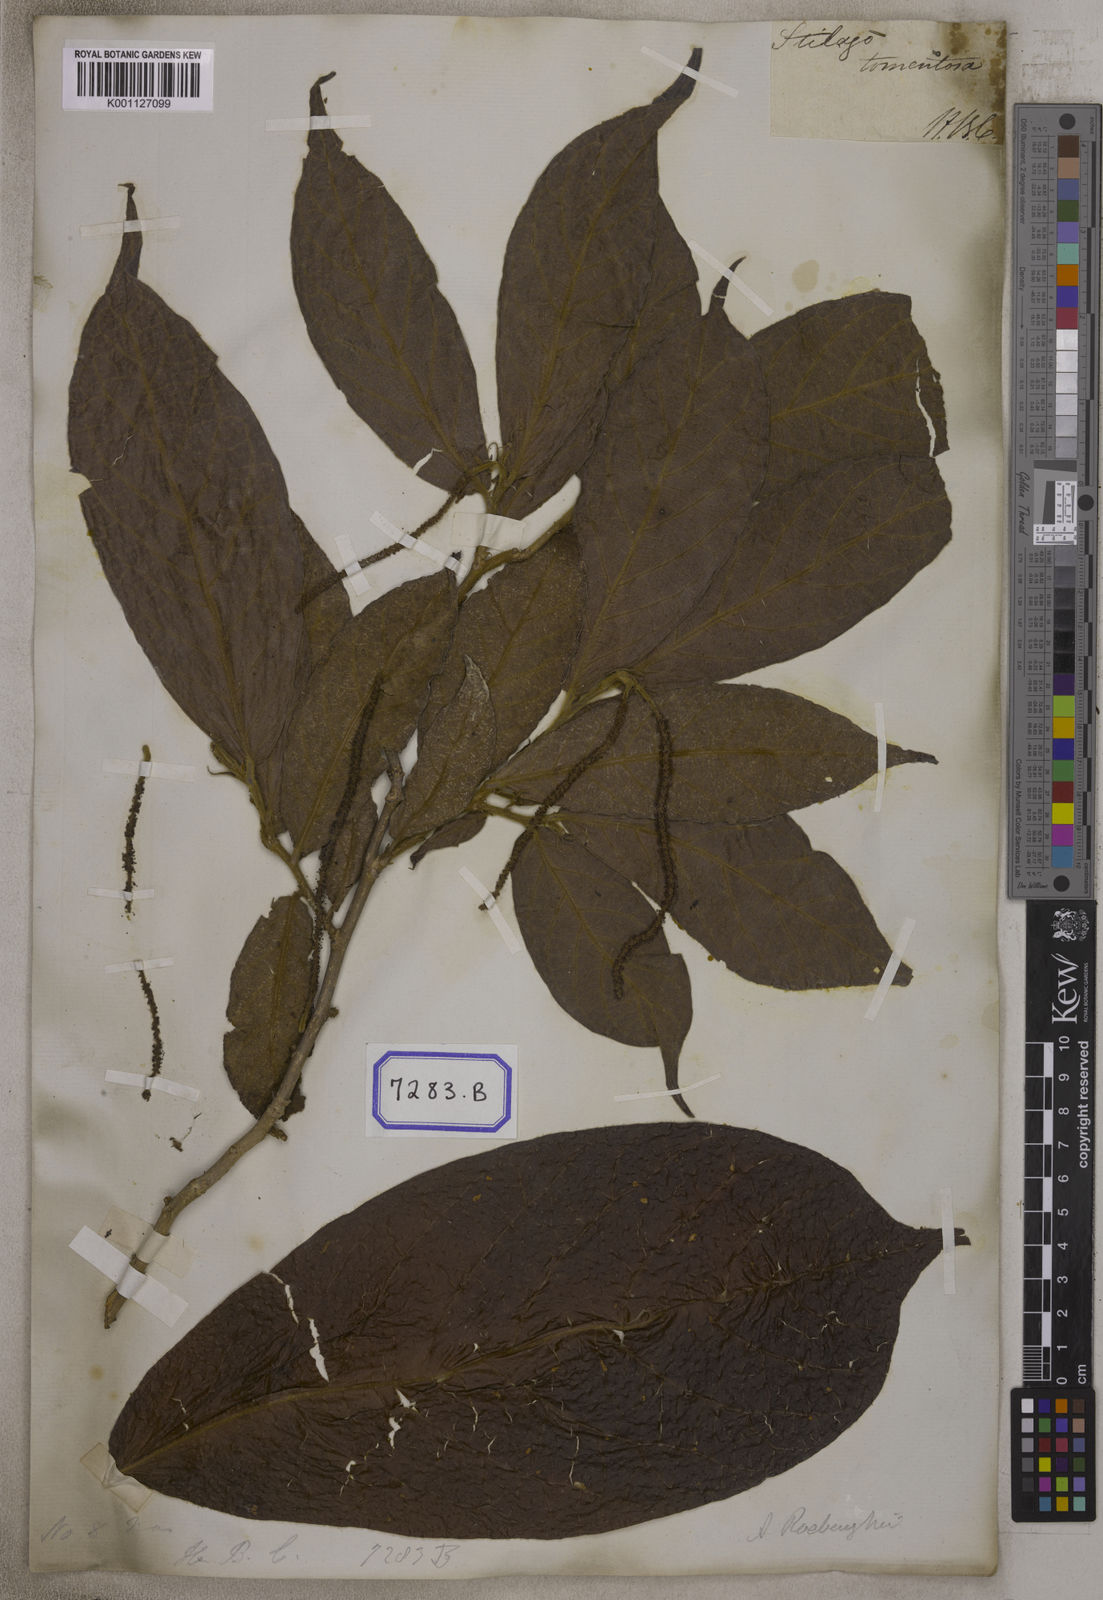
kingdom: Plantae
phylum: Tracheophyta
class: Magnoliopsida
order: Malpighiales
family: Phyllanthaceae
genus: Antidesma
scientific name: Antidesma
